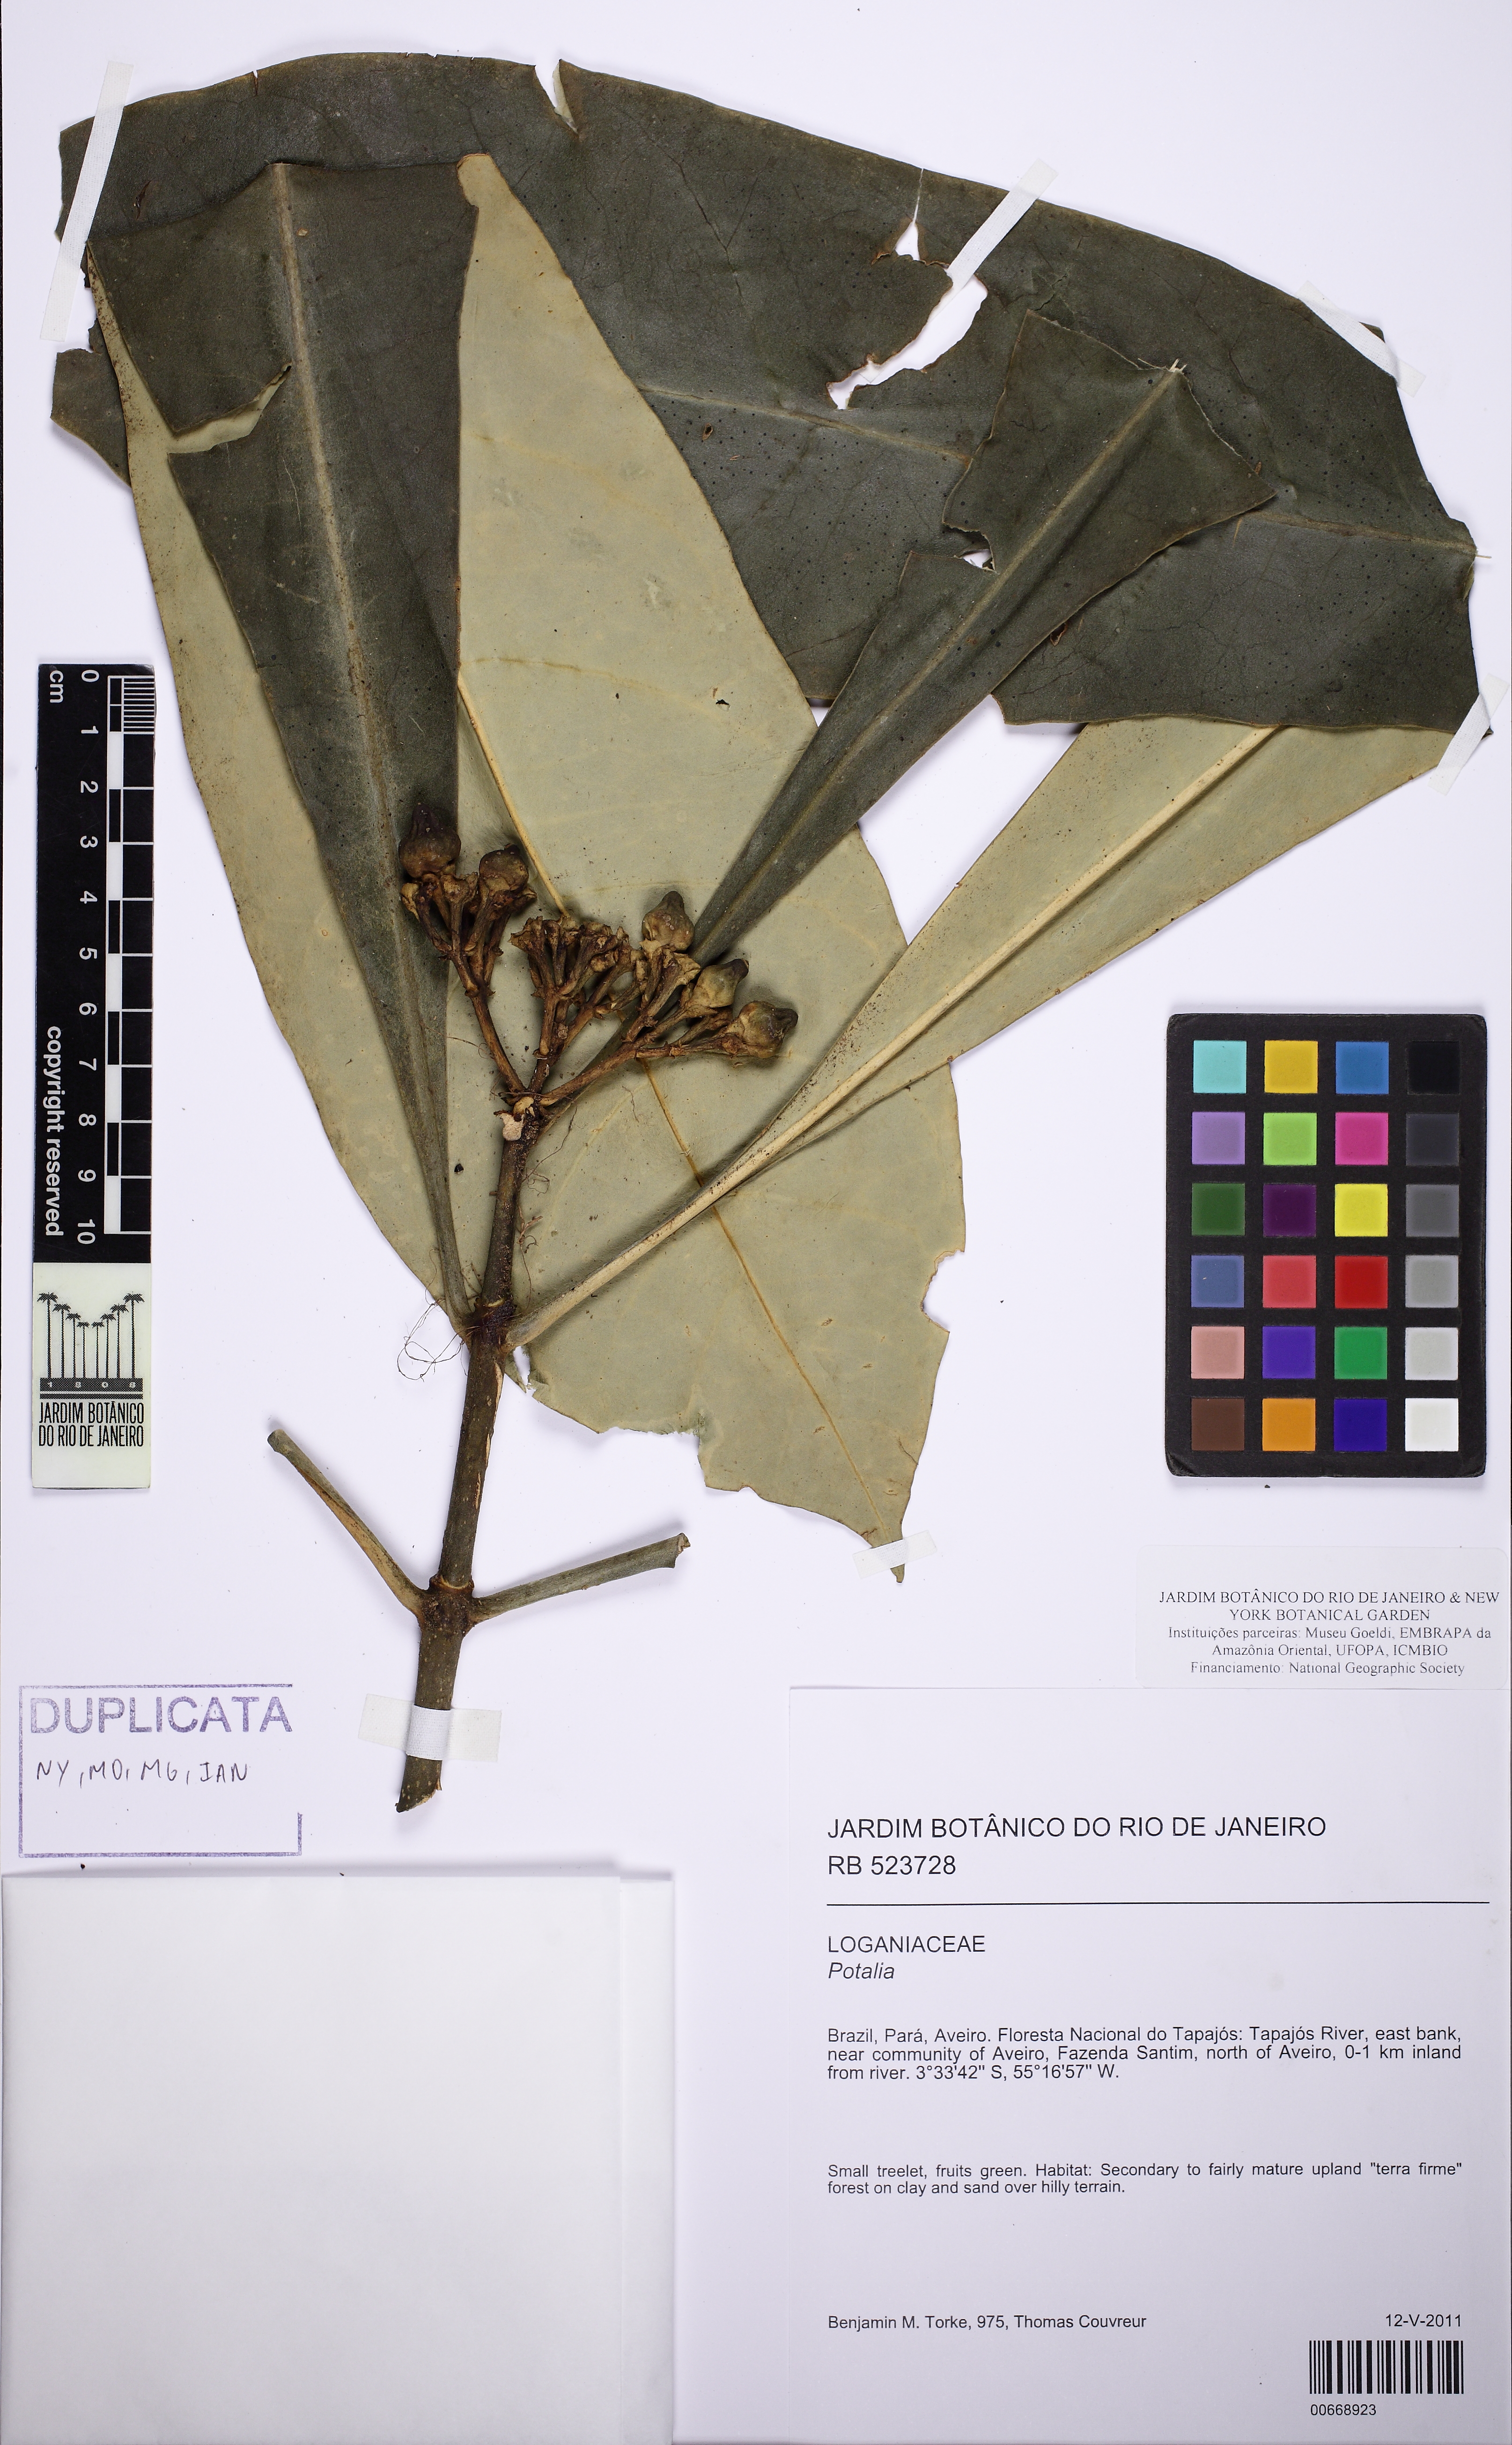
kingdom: Plantae
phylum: Tracheophyta
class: Magnoliopsida
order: Gentianales
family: Gentianaceae
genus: Potalia
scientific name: Potalia
